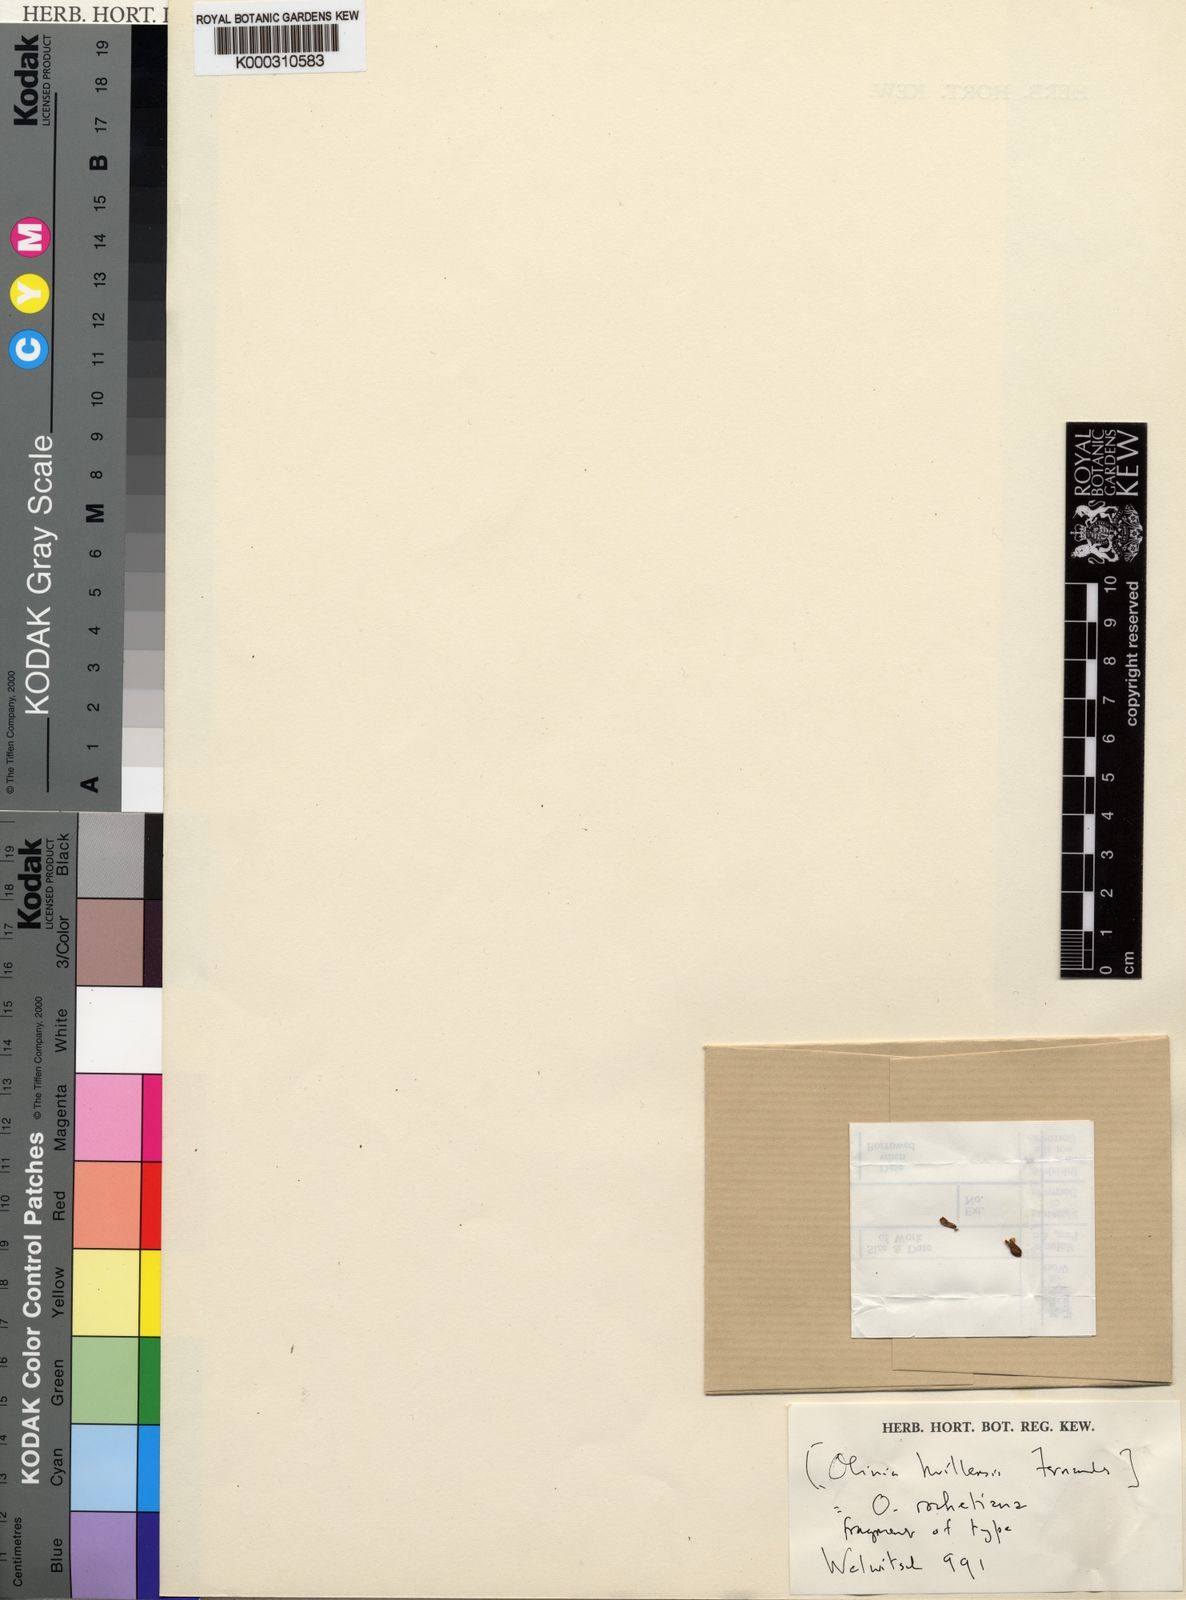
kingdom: Plantae
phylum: Tracheophyta
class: Magnoliopsida
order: Myrtales
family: Penaeaceae
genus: Olinia
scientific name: Olinia rochetiana
